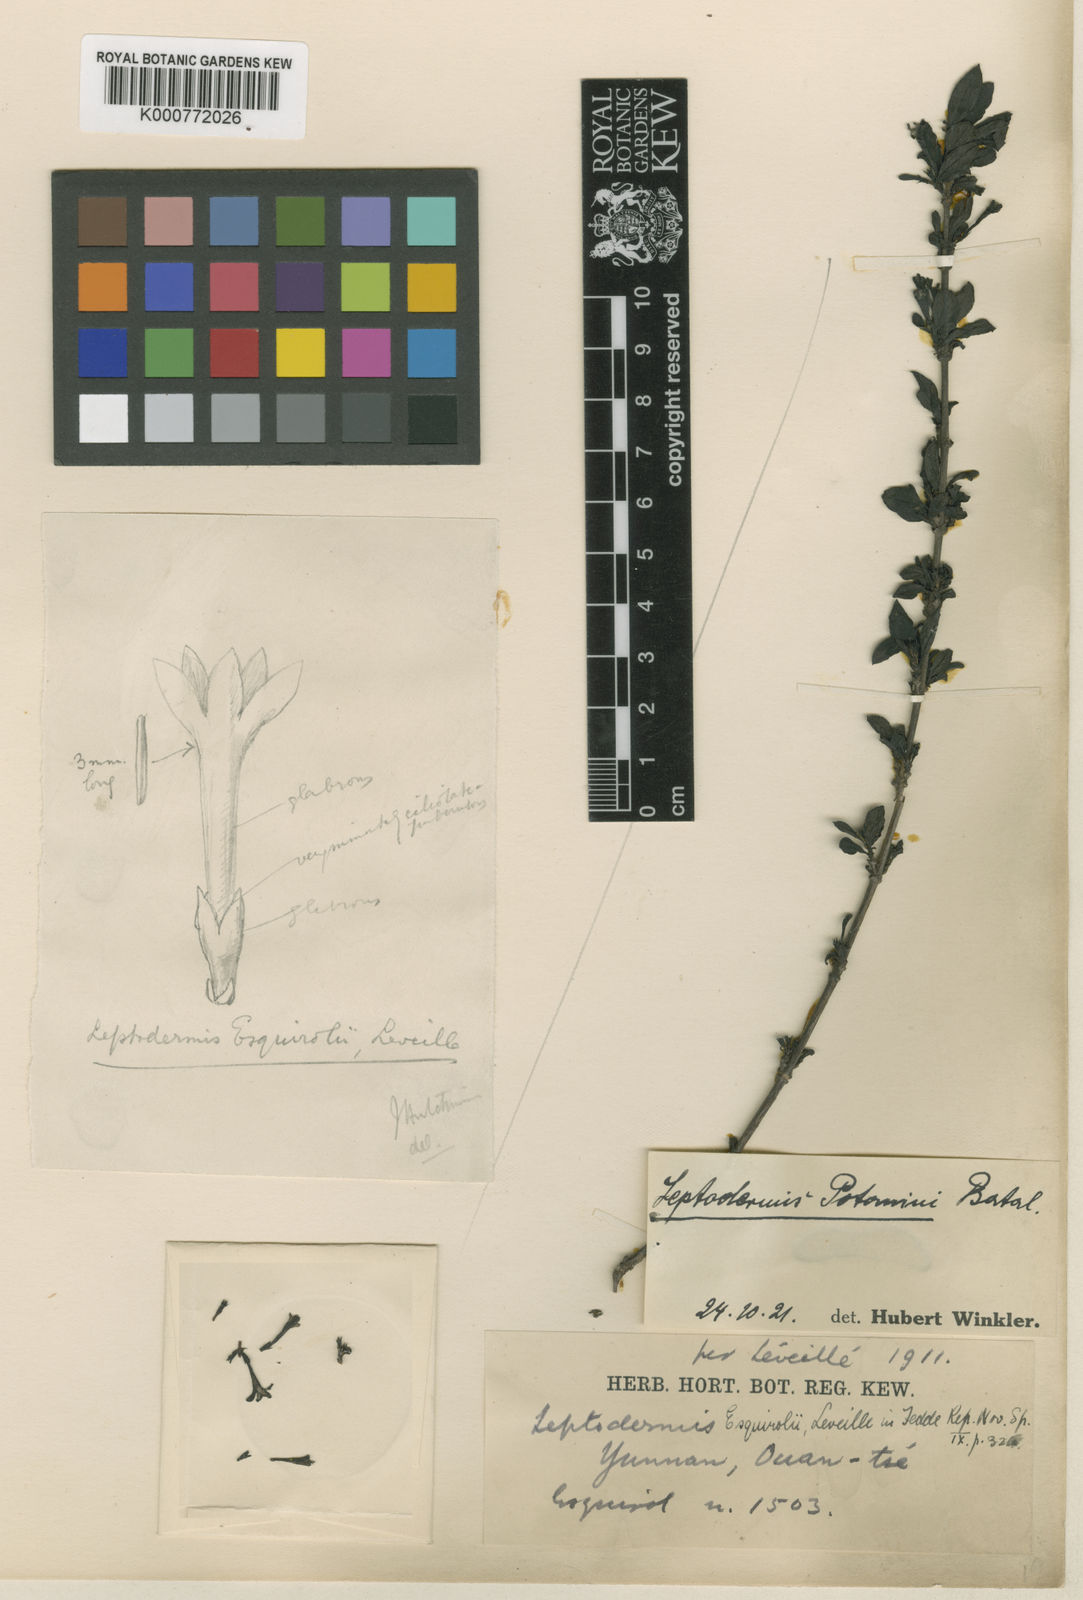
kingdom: Plantae
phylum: Tracheophyta
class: Magnoliopsida
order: Gentianales
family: Rubiaceae
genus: Leptodermis
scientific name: Leptodermis potaninii
